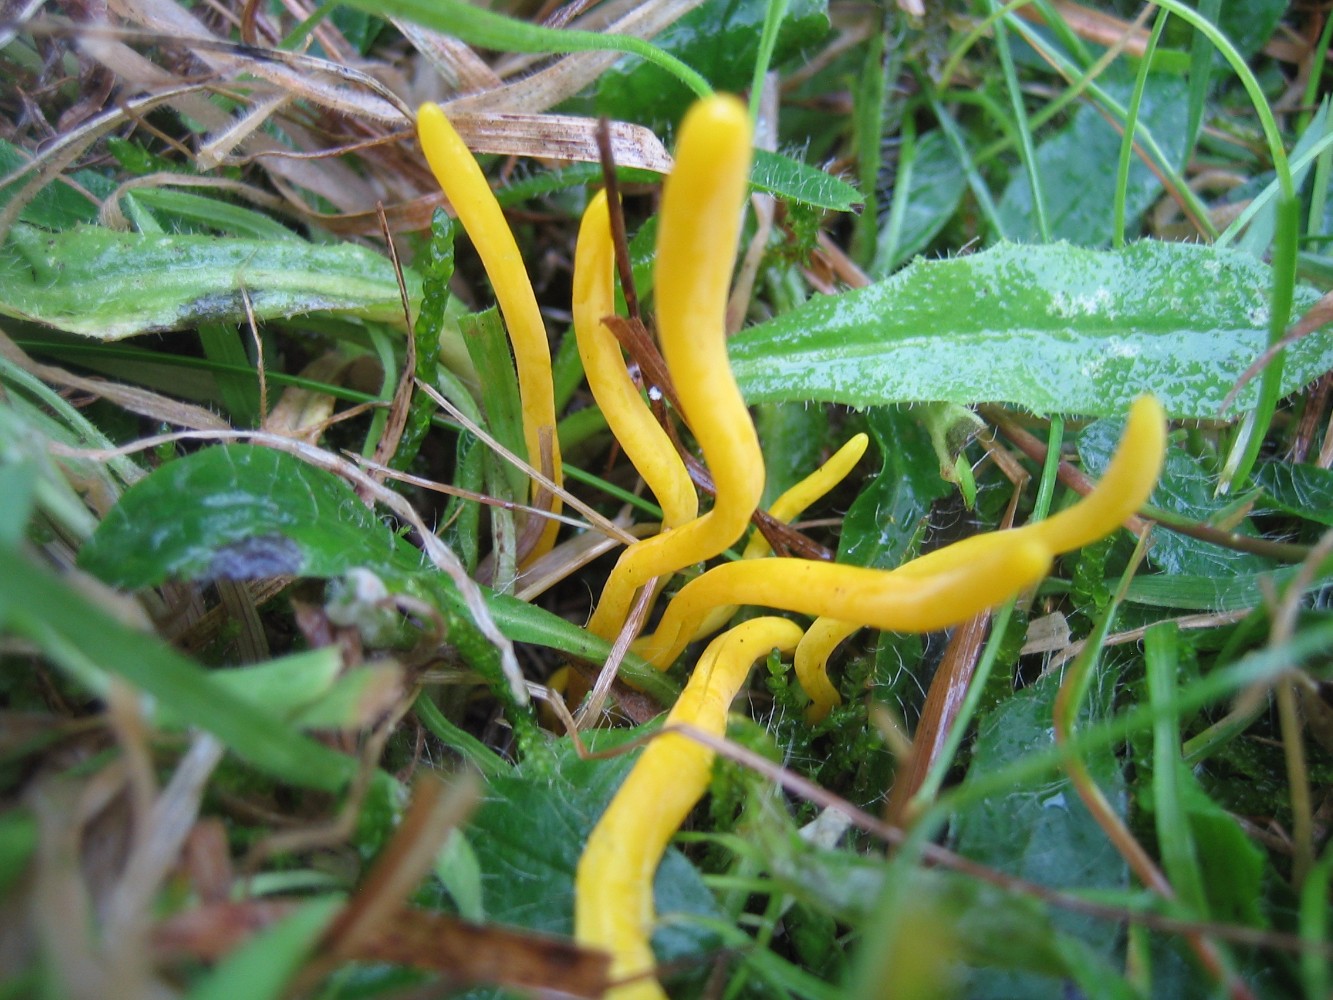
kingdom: Fungi
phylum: Basidiomycota
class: Agaricomycetes
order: Agaricales
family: Clavariaceae
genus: Clavulinopsis
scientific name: Clavulinopsis
